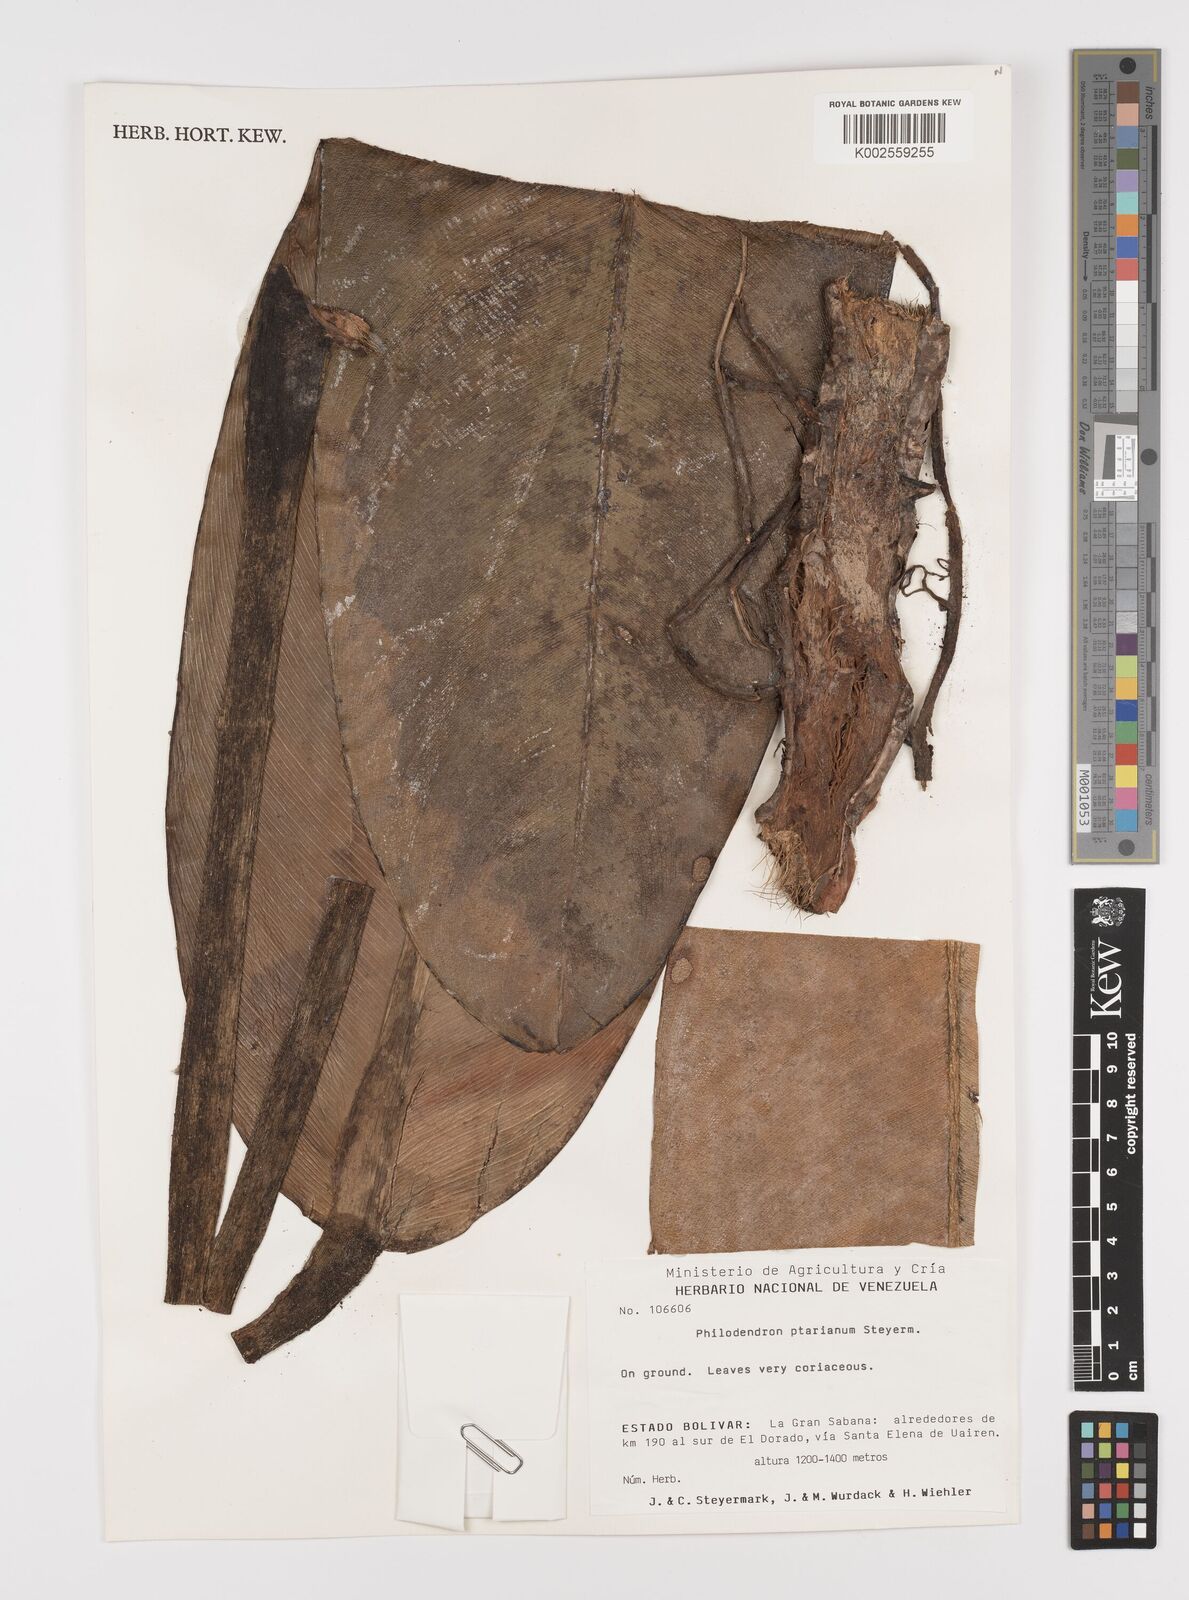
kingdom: Plantae
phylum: Tracheophyta
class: Liliopsida
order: Alismatales
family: Araceae
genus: Philodendron
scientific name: Philodendron callosum
